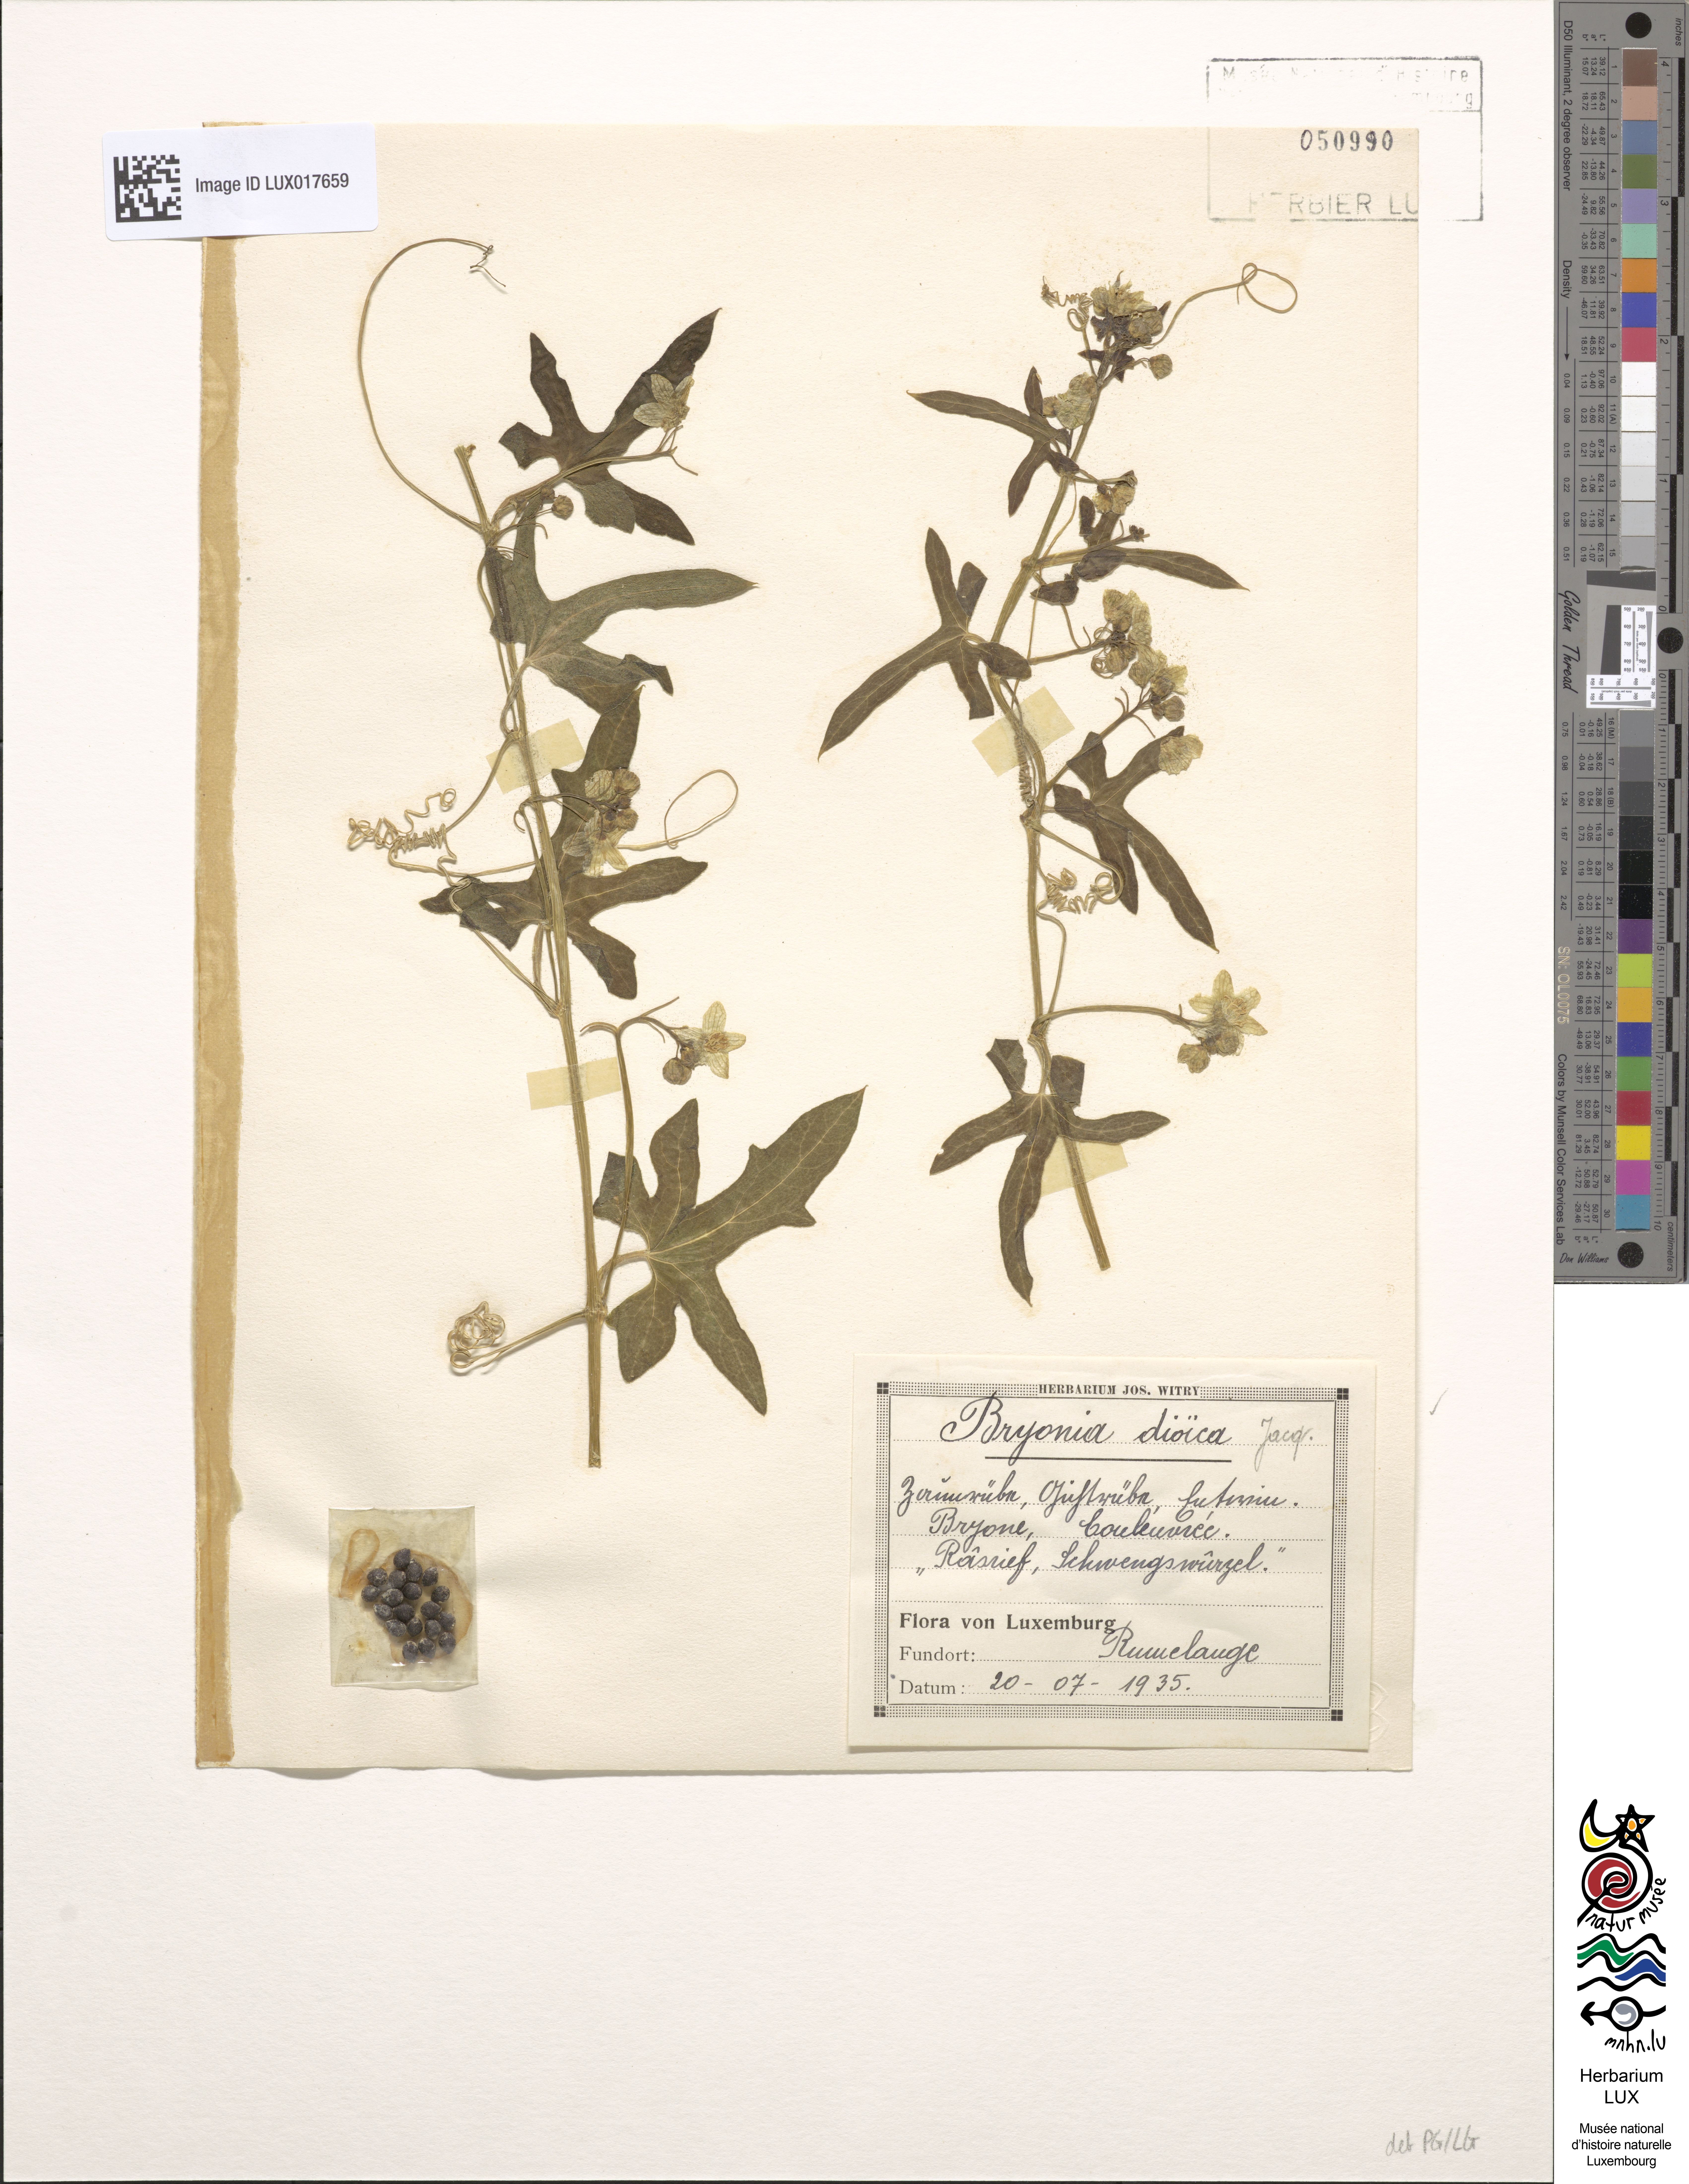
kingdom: Plantae
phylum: Tracheophyta
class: Magnoliopsida
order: Cucurbitales
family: Cucurbitaceae
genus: Bryonia
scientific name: Bryonia dioica
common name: White bryony
